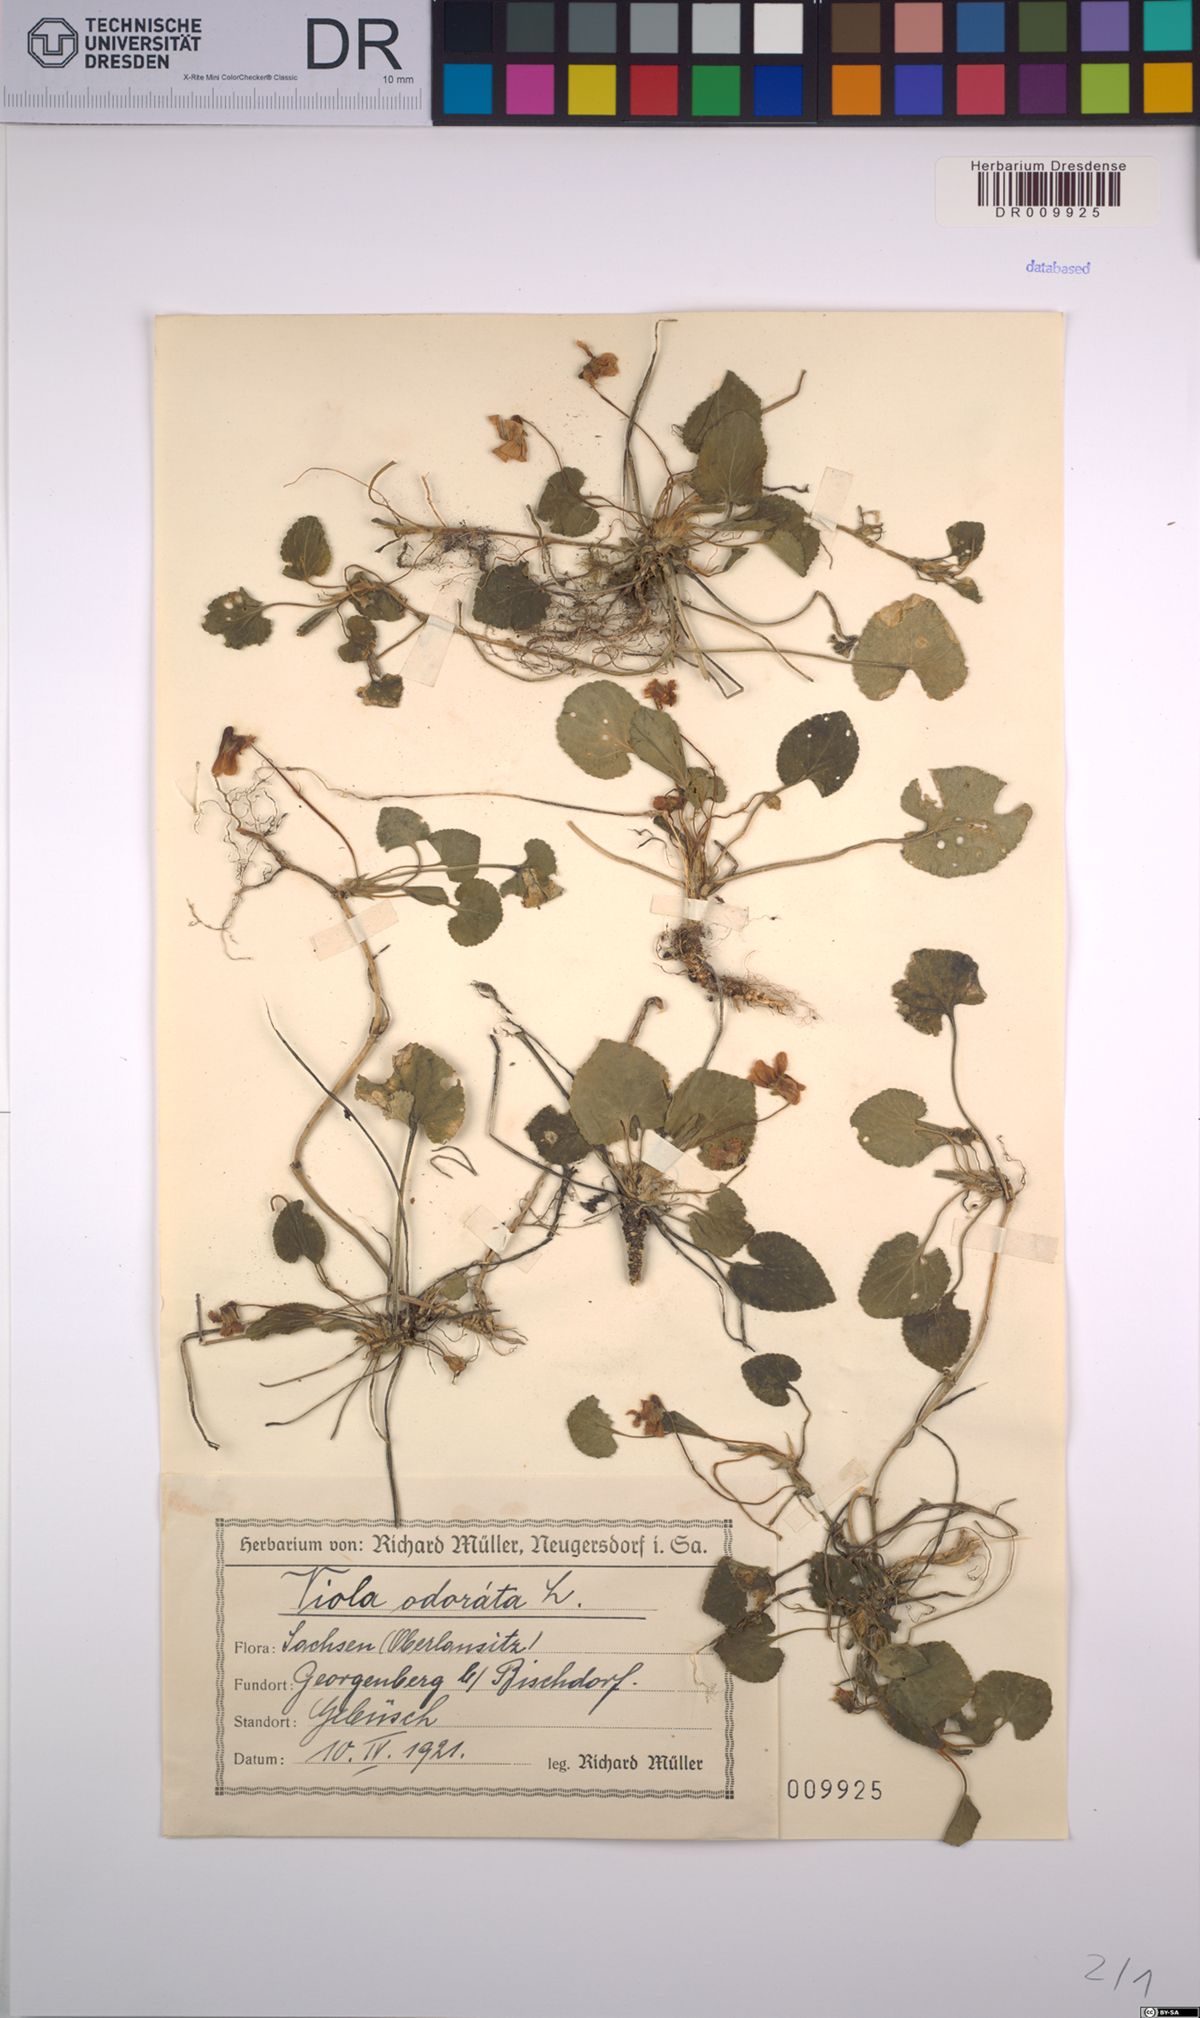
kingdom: Plantae
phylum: Tracheophyta
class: Magnoliopsida
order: Malpighiales
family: Violaceae
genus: Viola
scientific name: Viola odorata
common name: Sweet violet
